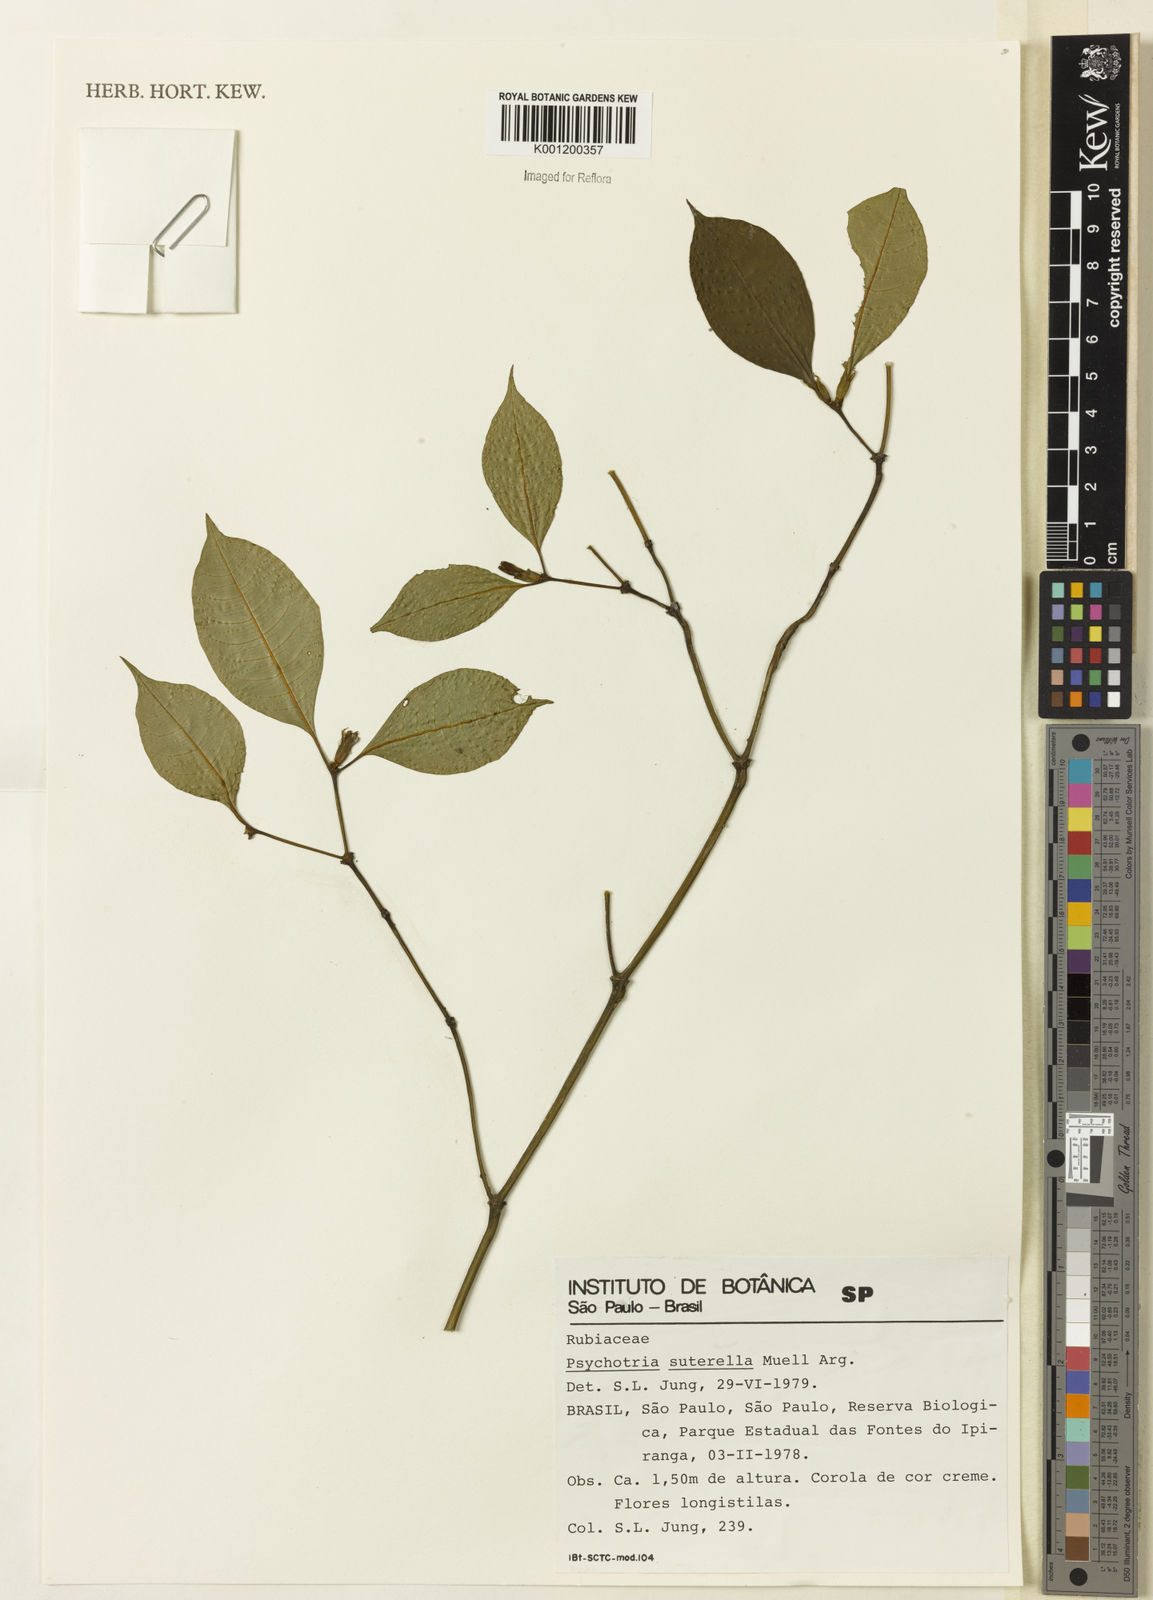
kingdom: Plantae
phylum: Tracheophyta
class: Magnoliopsida
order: Gentianales
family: Rubiaceae
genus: Psychotria
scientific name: Psychotria
